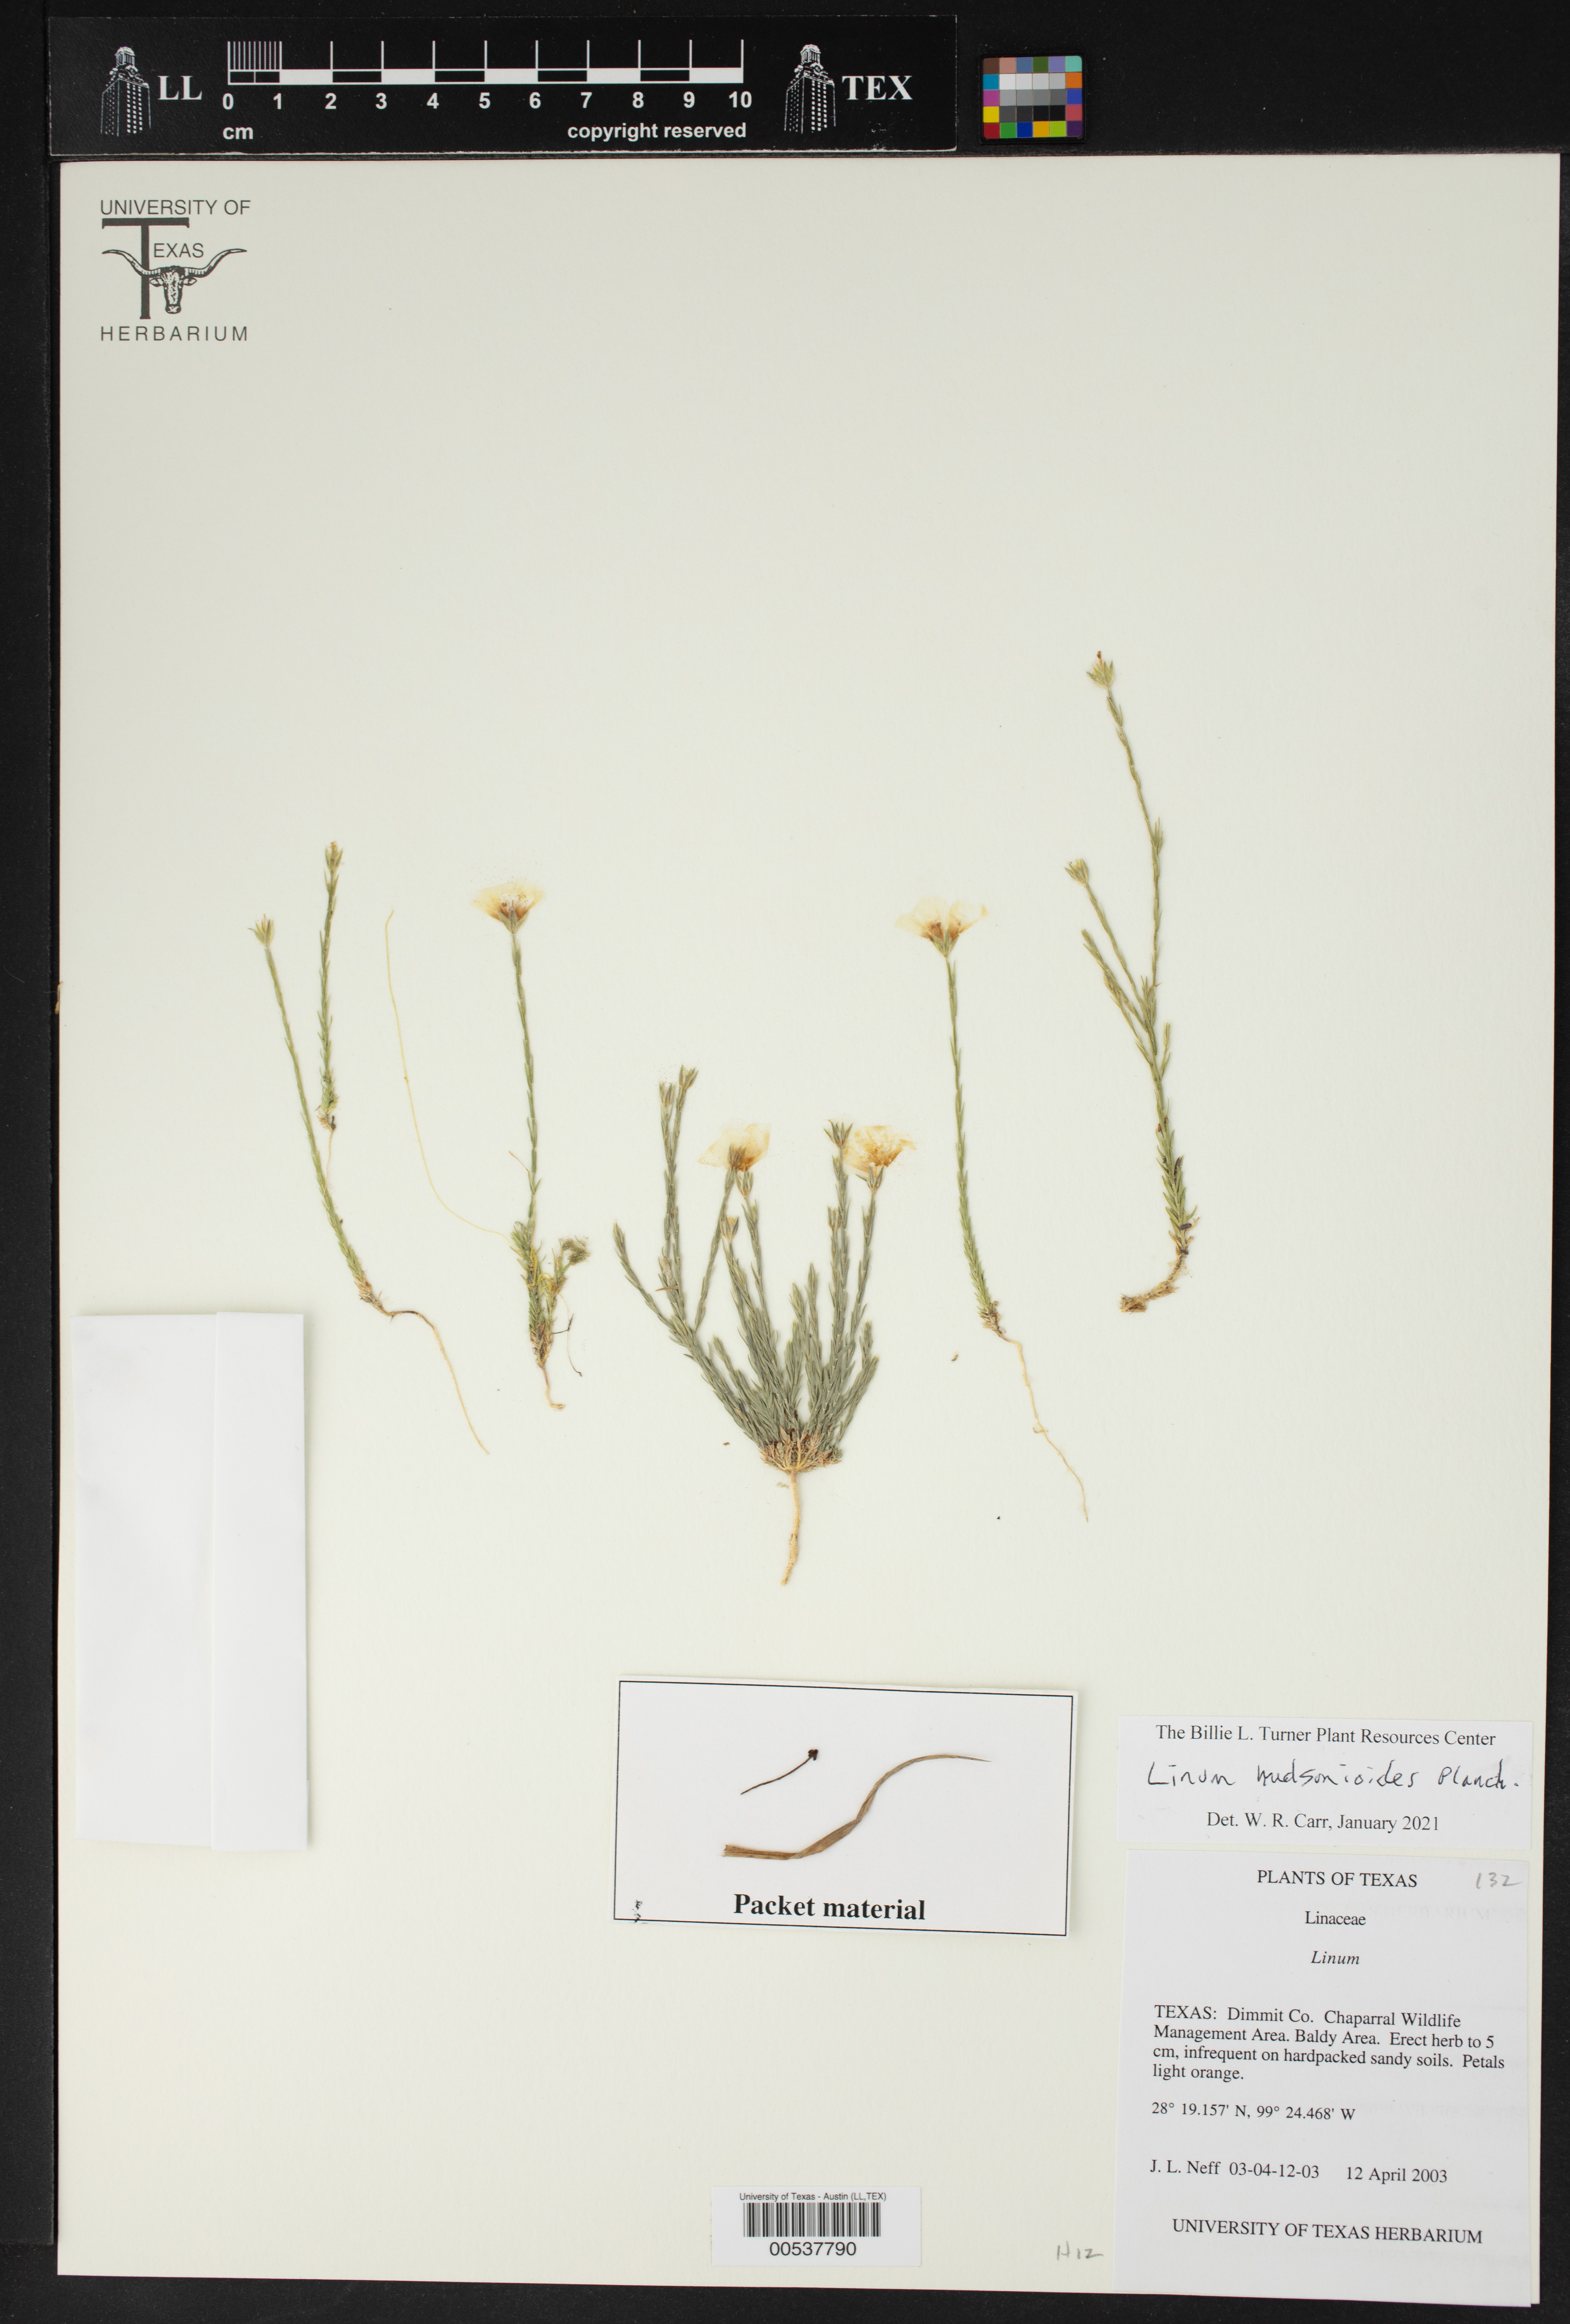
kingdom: Plantae
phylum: Tracheophyta
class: Magnoliopsida
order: Malpighiales
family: Linaceae
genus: Linum
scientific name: Linum hudsonioides
